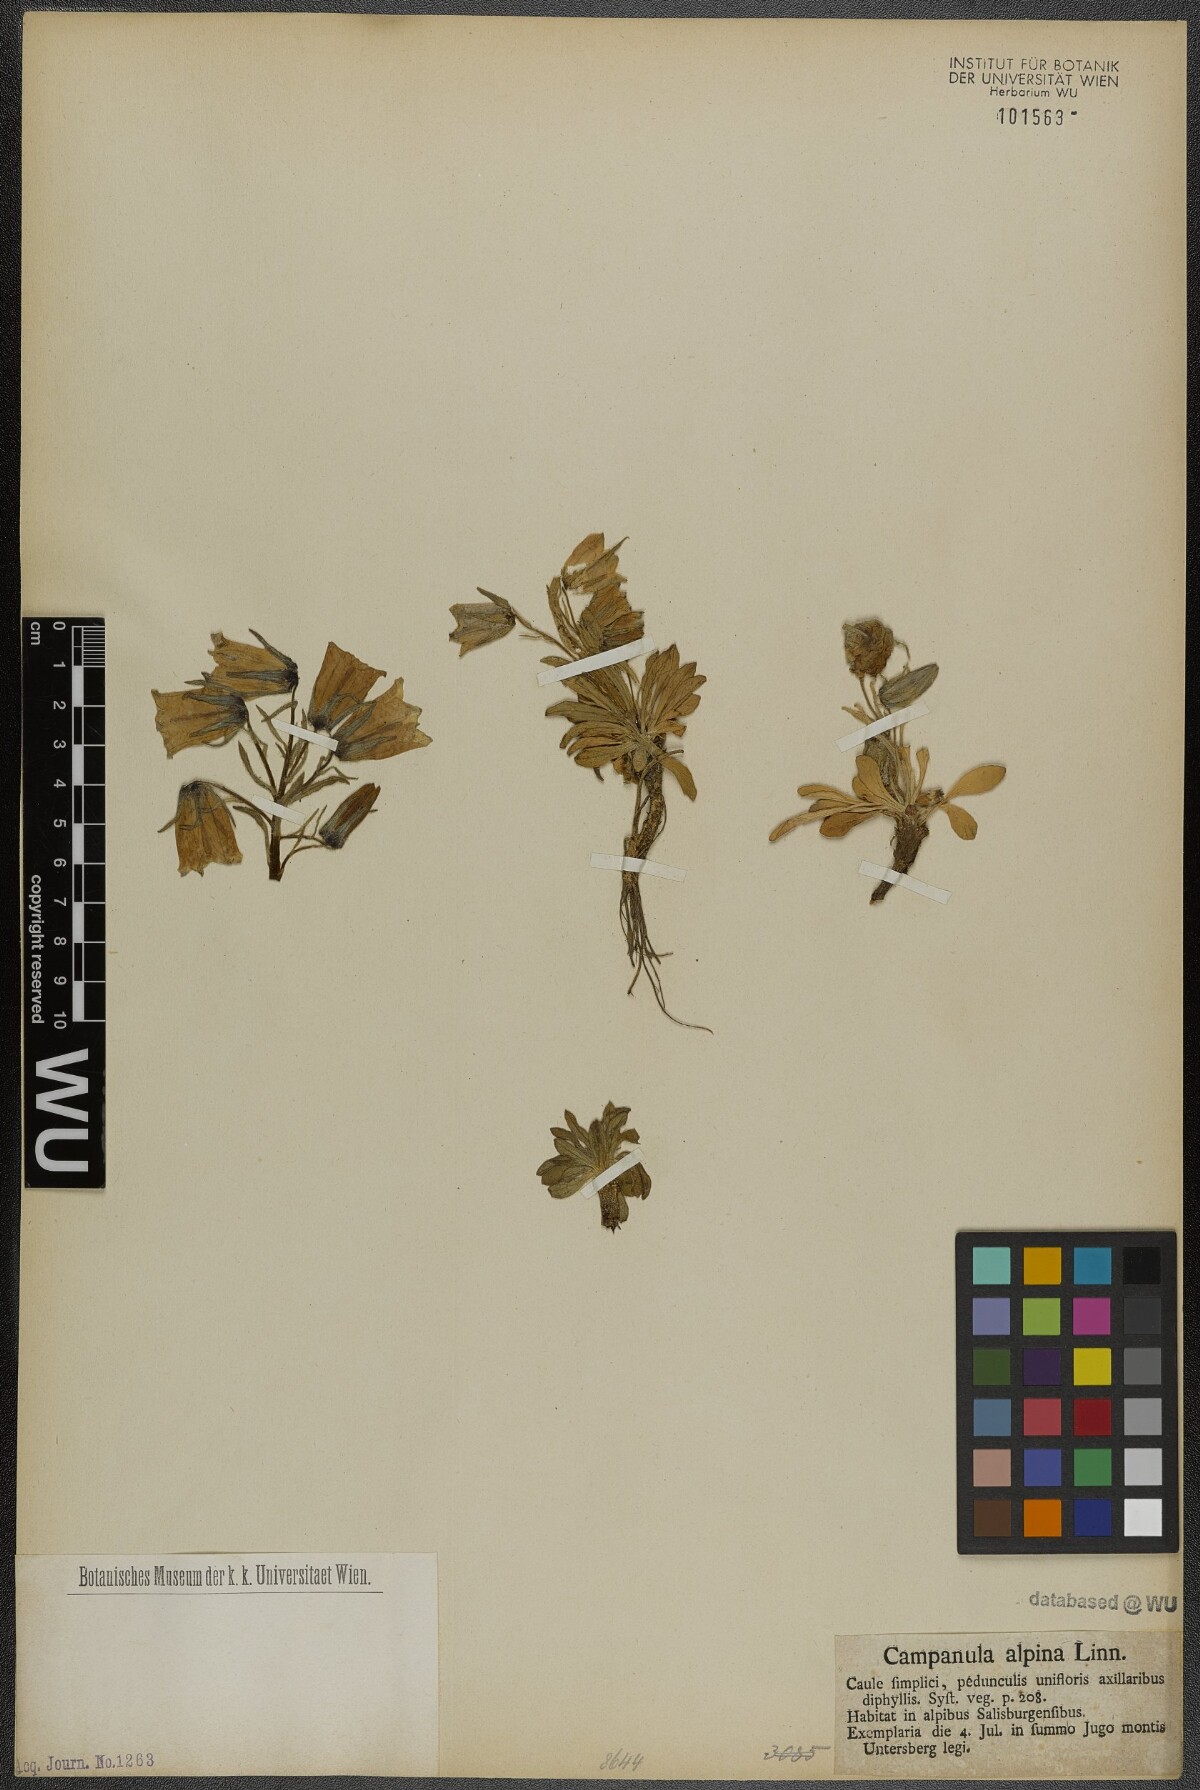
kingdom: Plantae
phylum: Tracheophyta
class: Magnoliopsida
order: Asterales
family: Campanulaceae
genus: Campanula
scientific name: Campanula alpina
